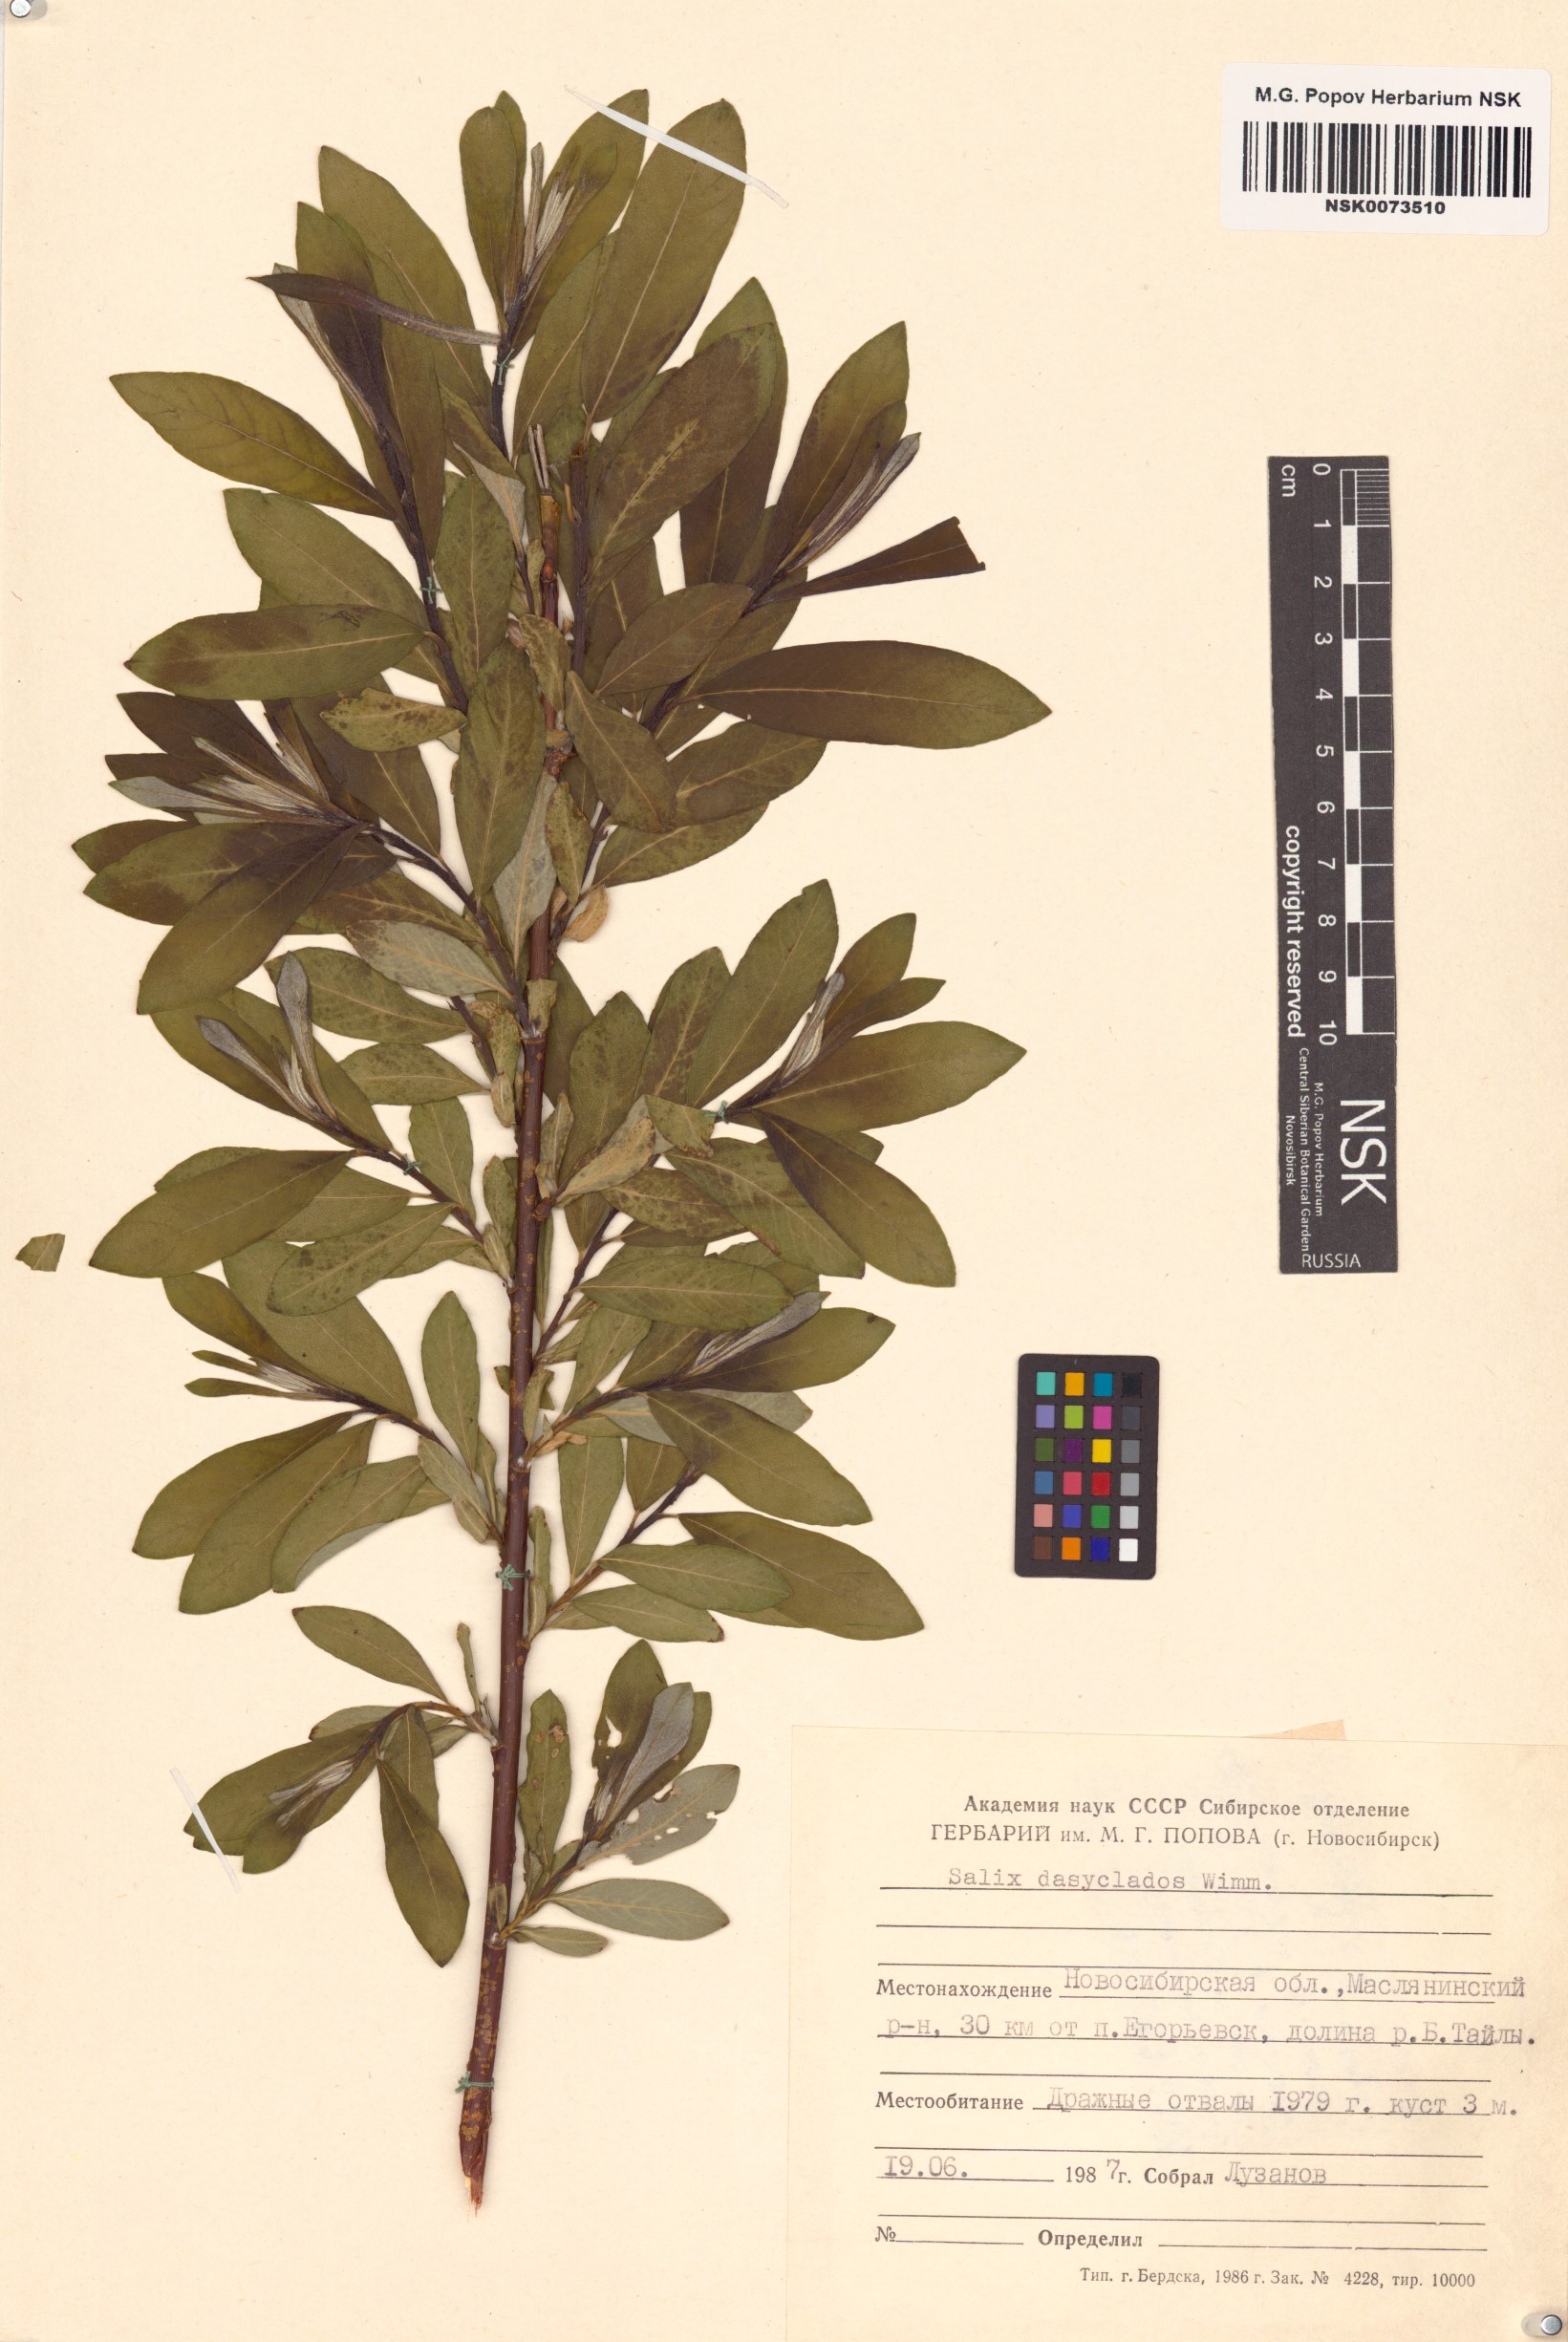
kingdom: Plantae
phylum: Tracheophyta
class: Magnoliopsida
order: Malpighiales
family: Salicaceae
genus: Salix
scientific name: Salix gmelinii
